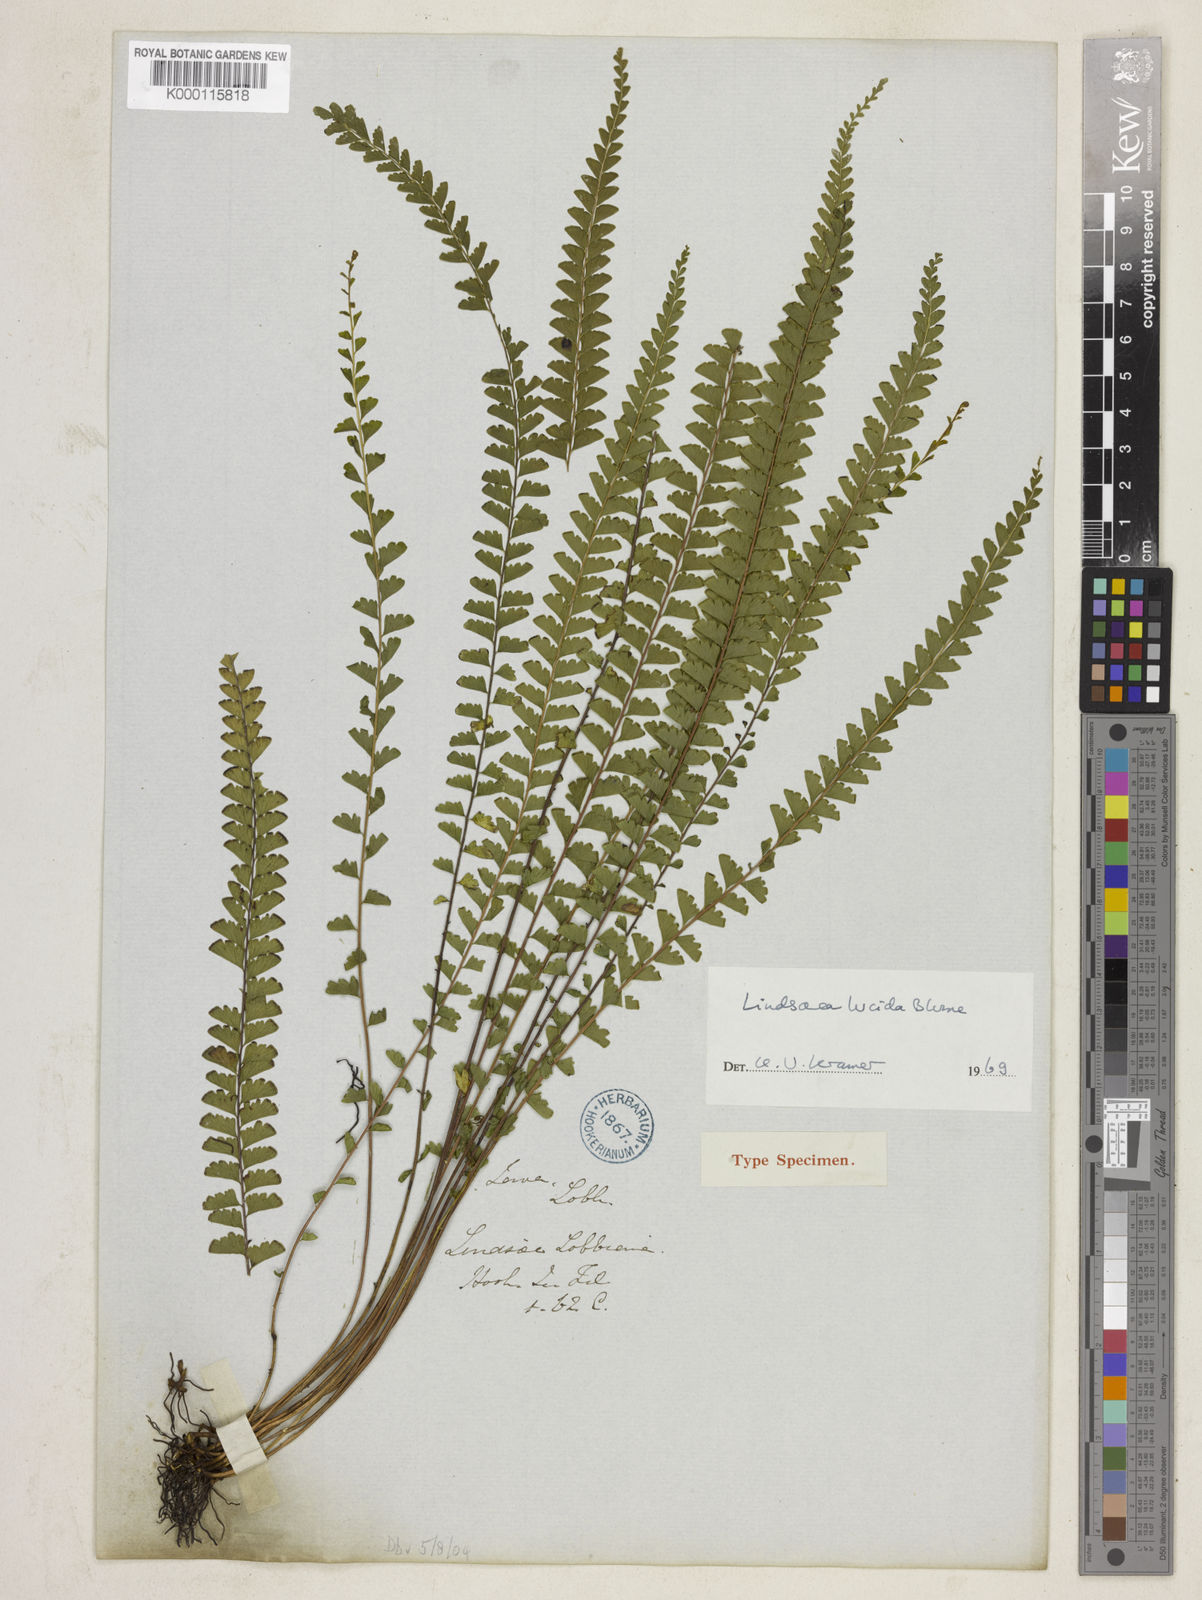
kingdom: Plantae
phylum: Tracheophyta
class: Polypodiopsida
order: Polypodiales
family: Lindsaeaceae
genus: Lindsaea
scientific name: Lindsaea lucida
